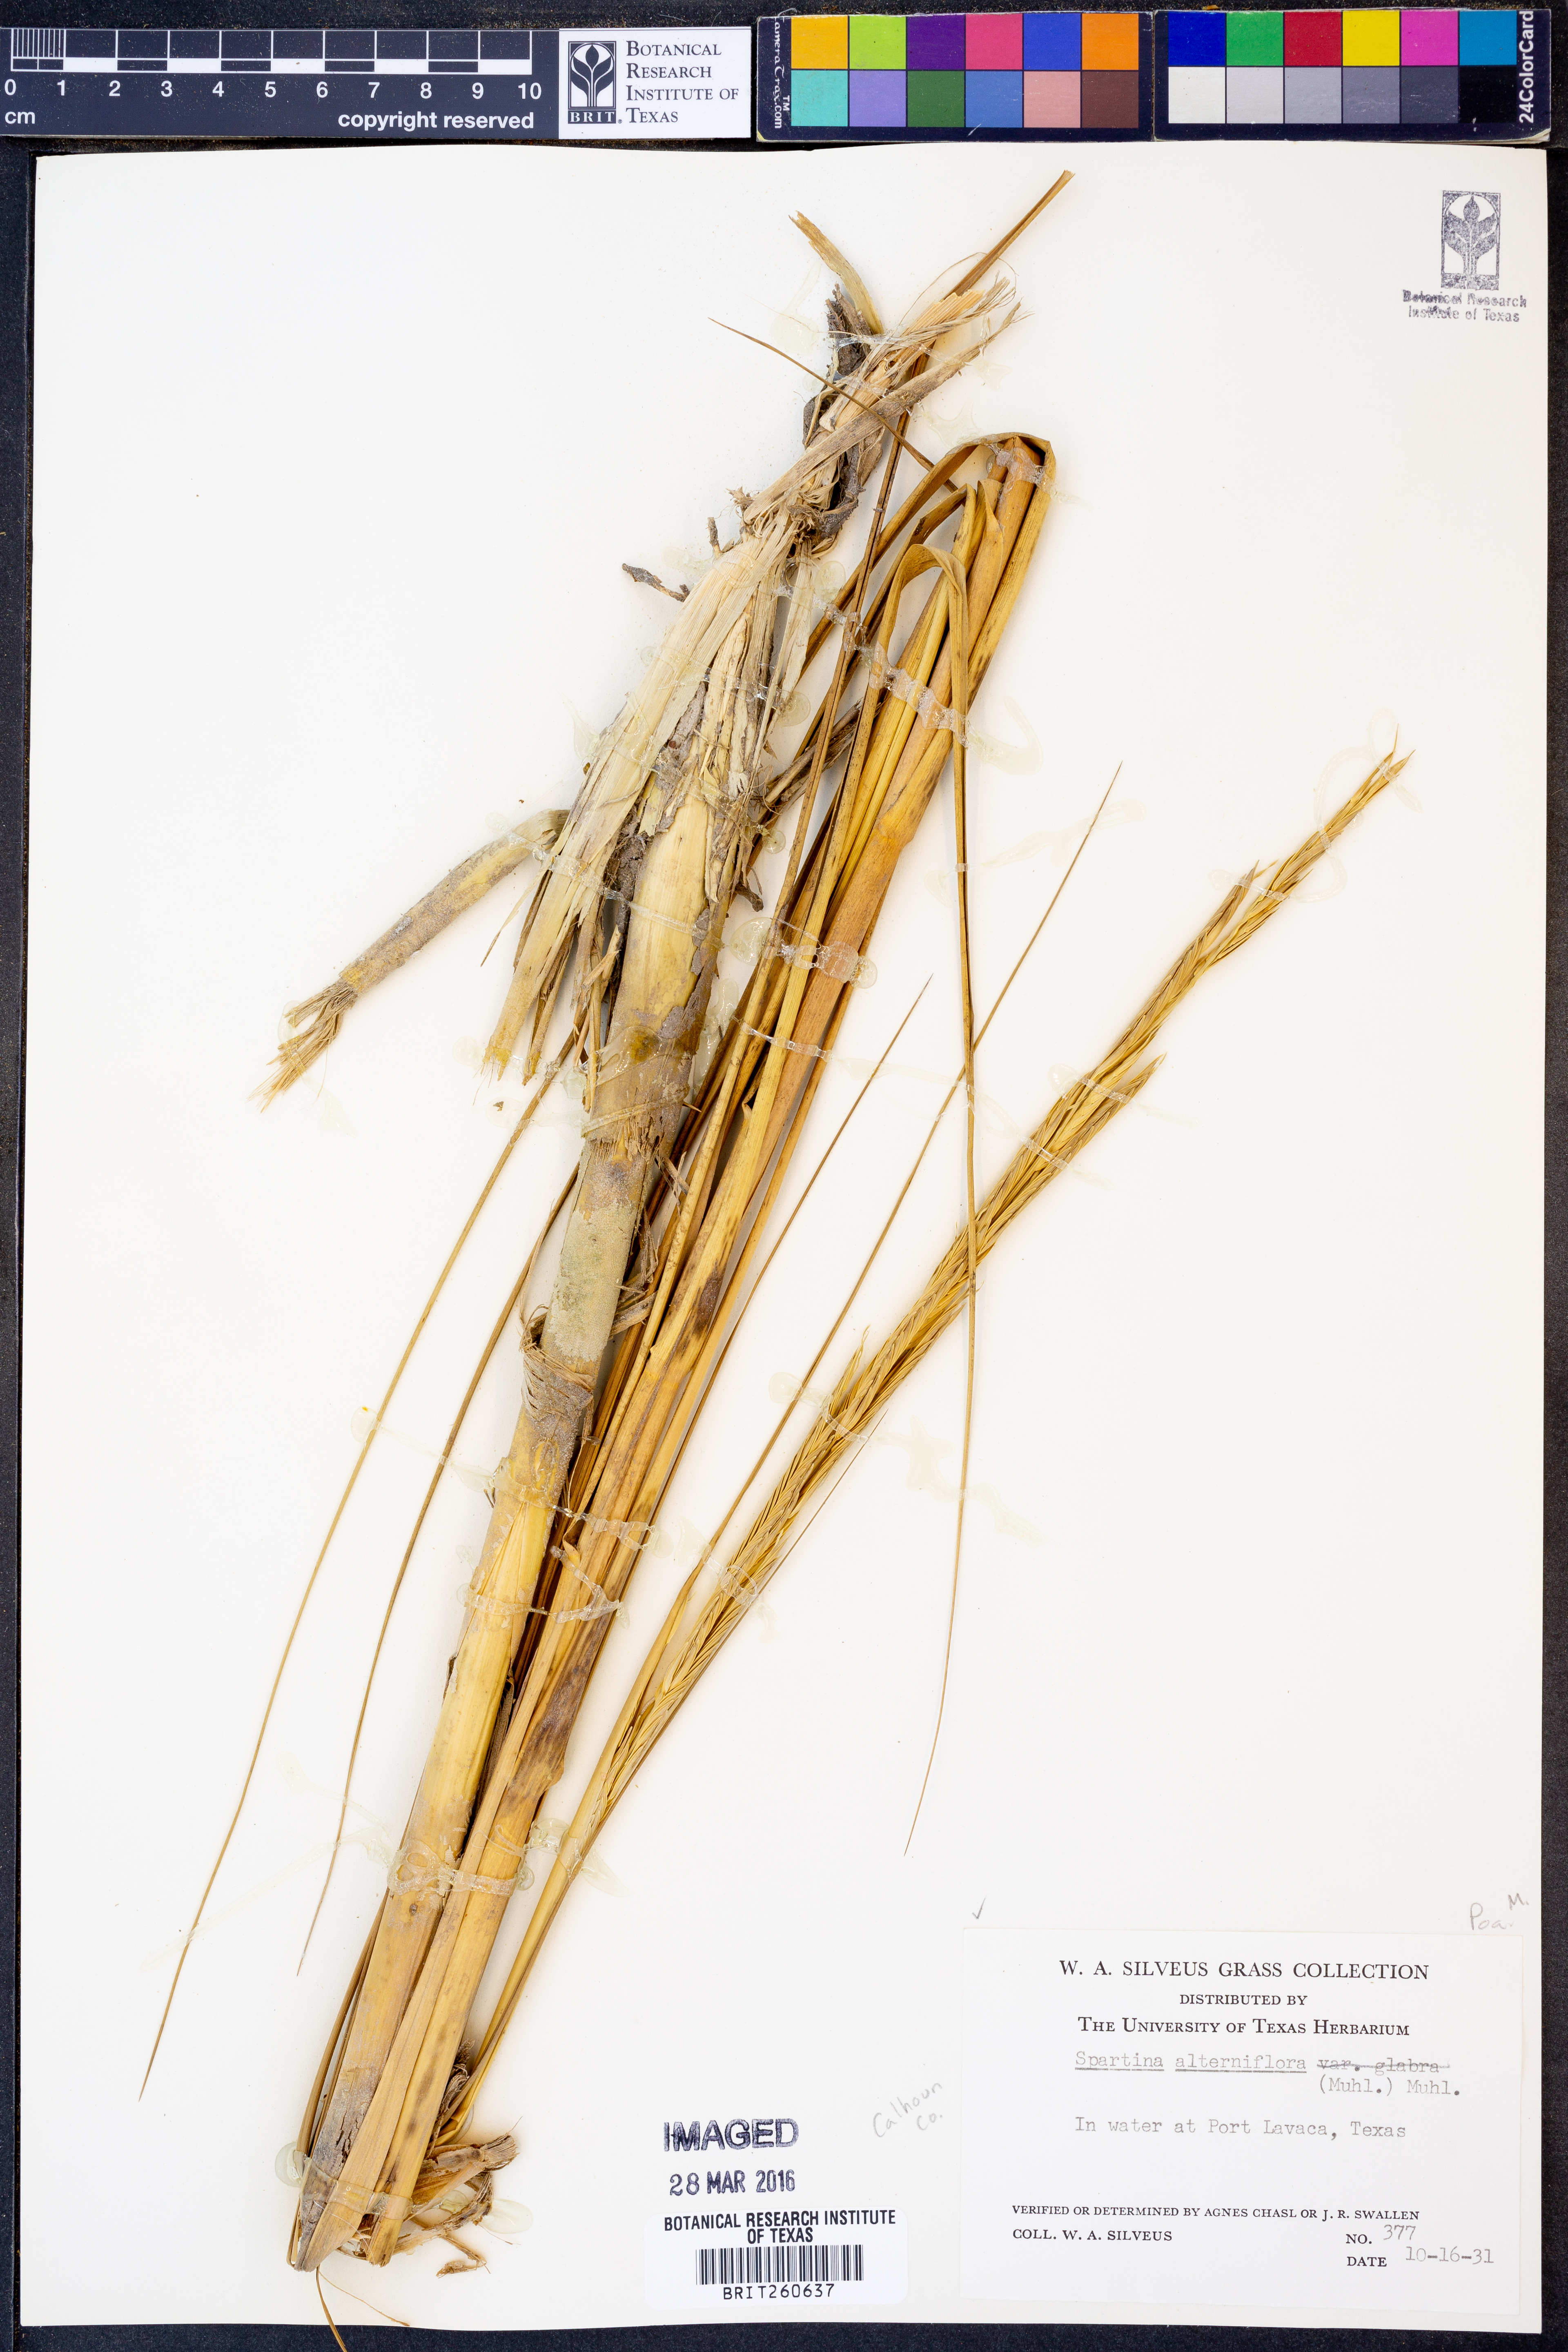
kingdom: Plantae
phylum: Tracheophyta
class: Liliopsida
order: Poales
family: Poaceae
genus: Sporobolus
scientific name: Sporobolus alterniflorus
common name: Atlantic cordgrass
